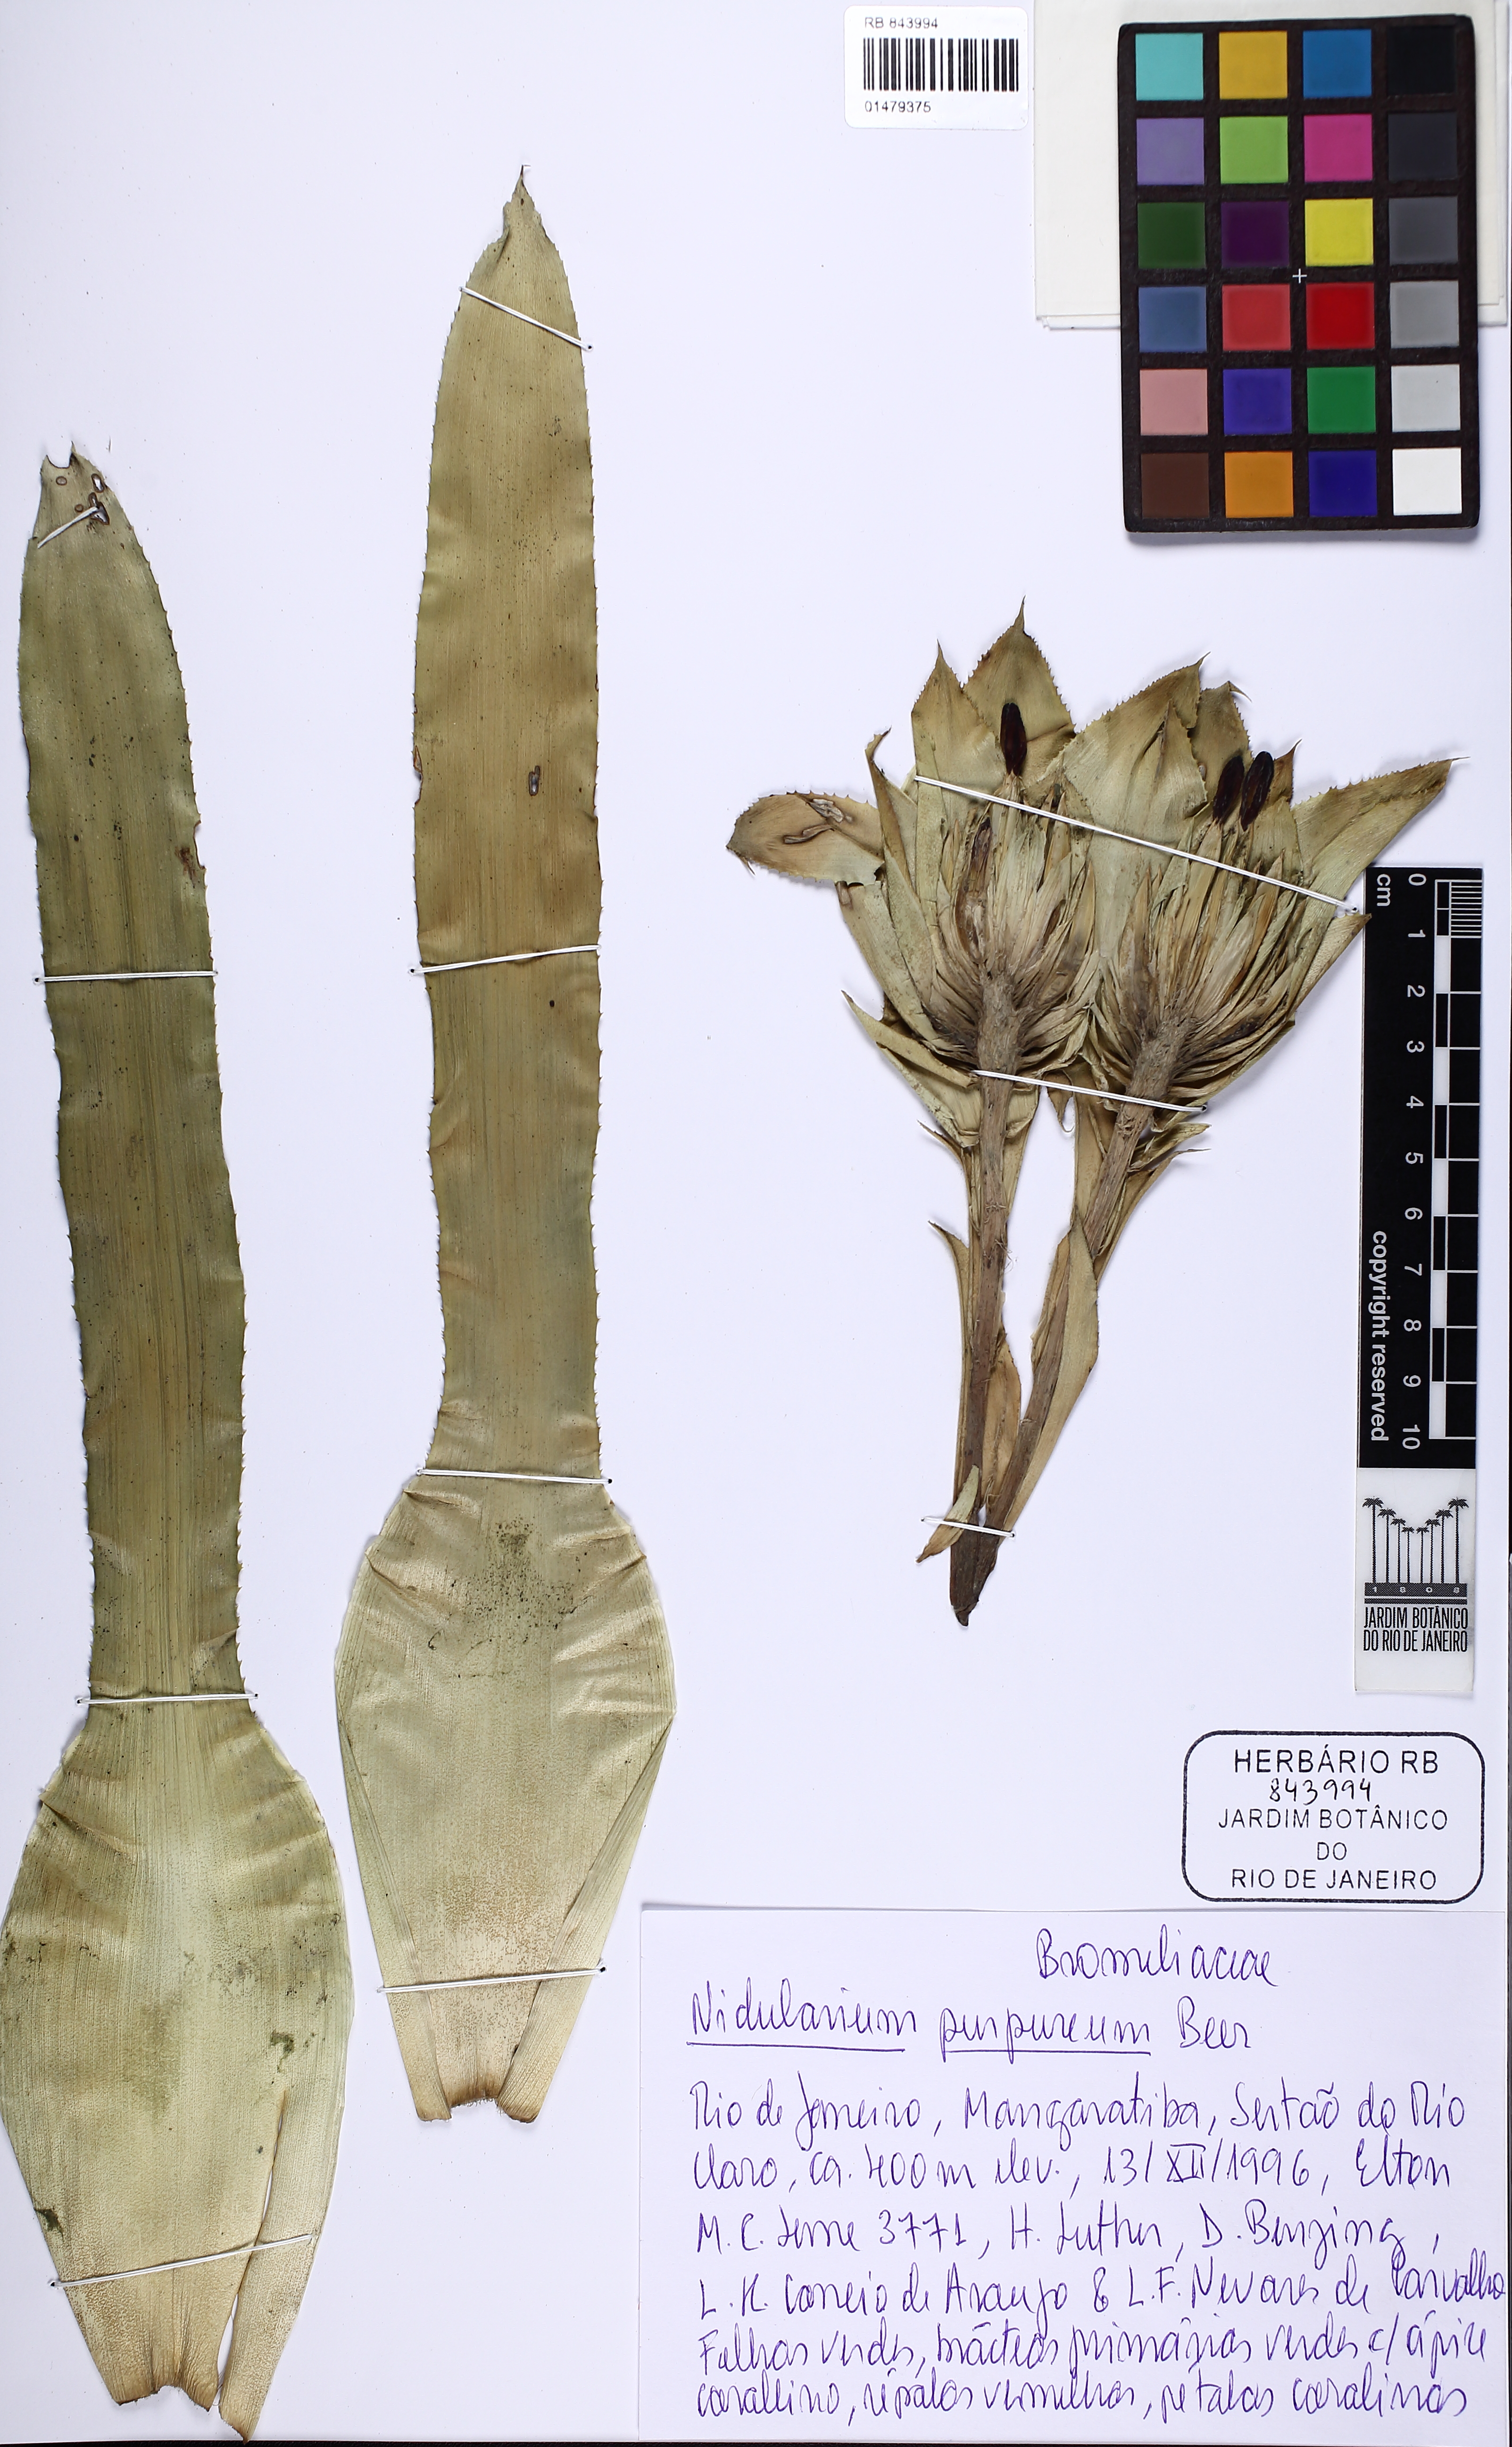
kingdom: Plantae
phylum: Tracheophyta
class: Liliopsida
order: Poales
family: Bromeliaceae
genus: Nidularium
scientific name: Nidularium purpureum
